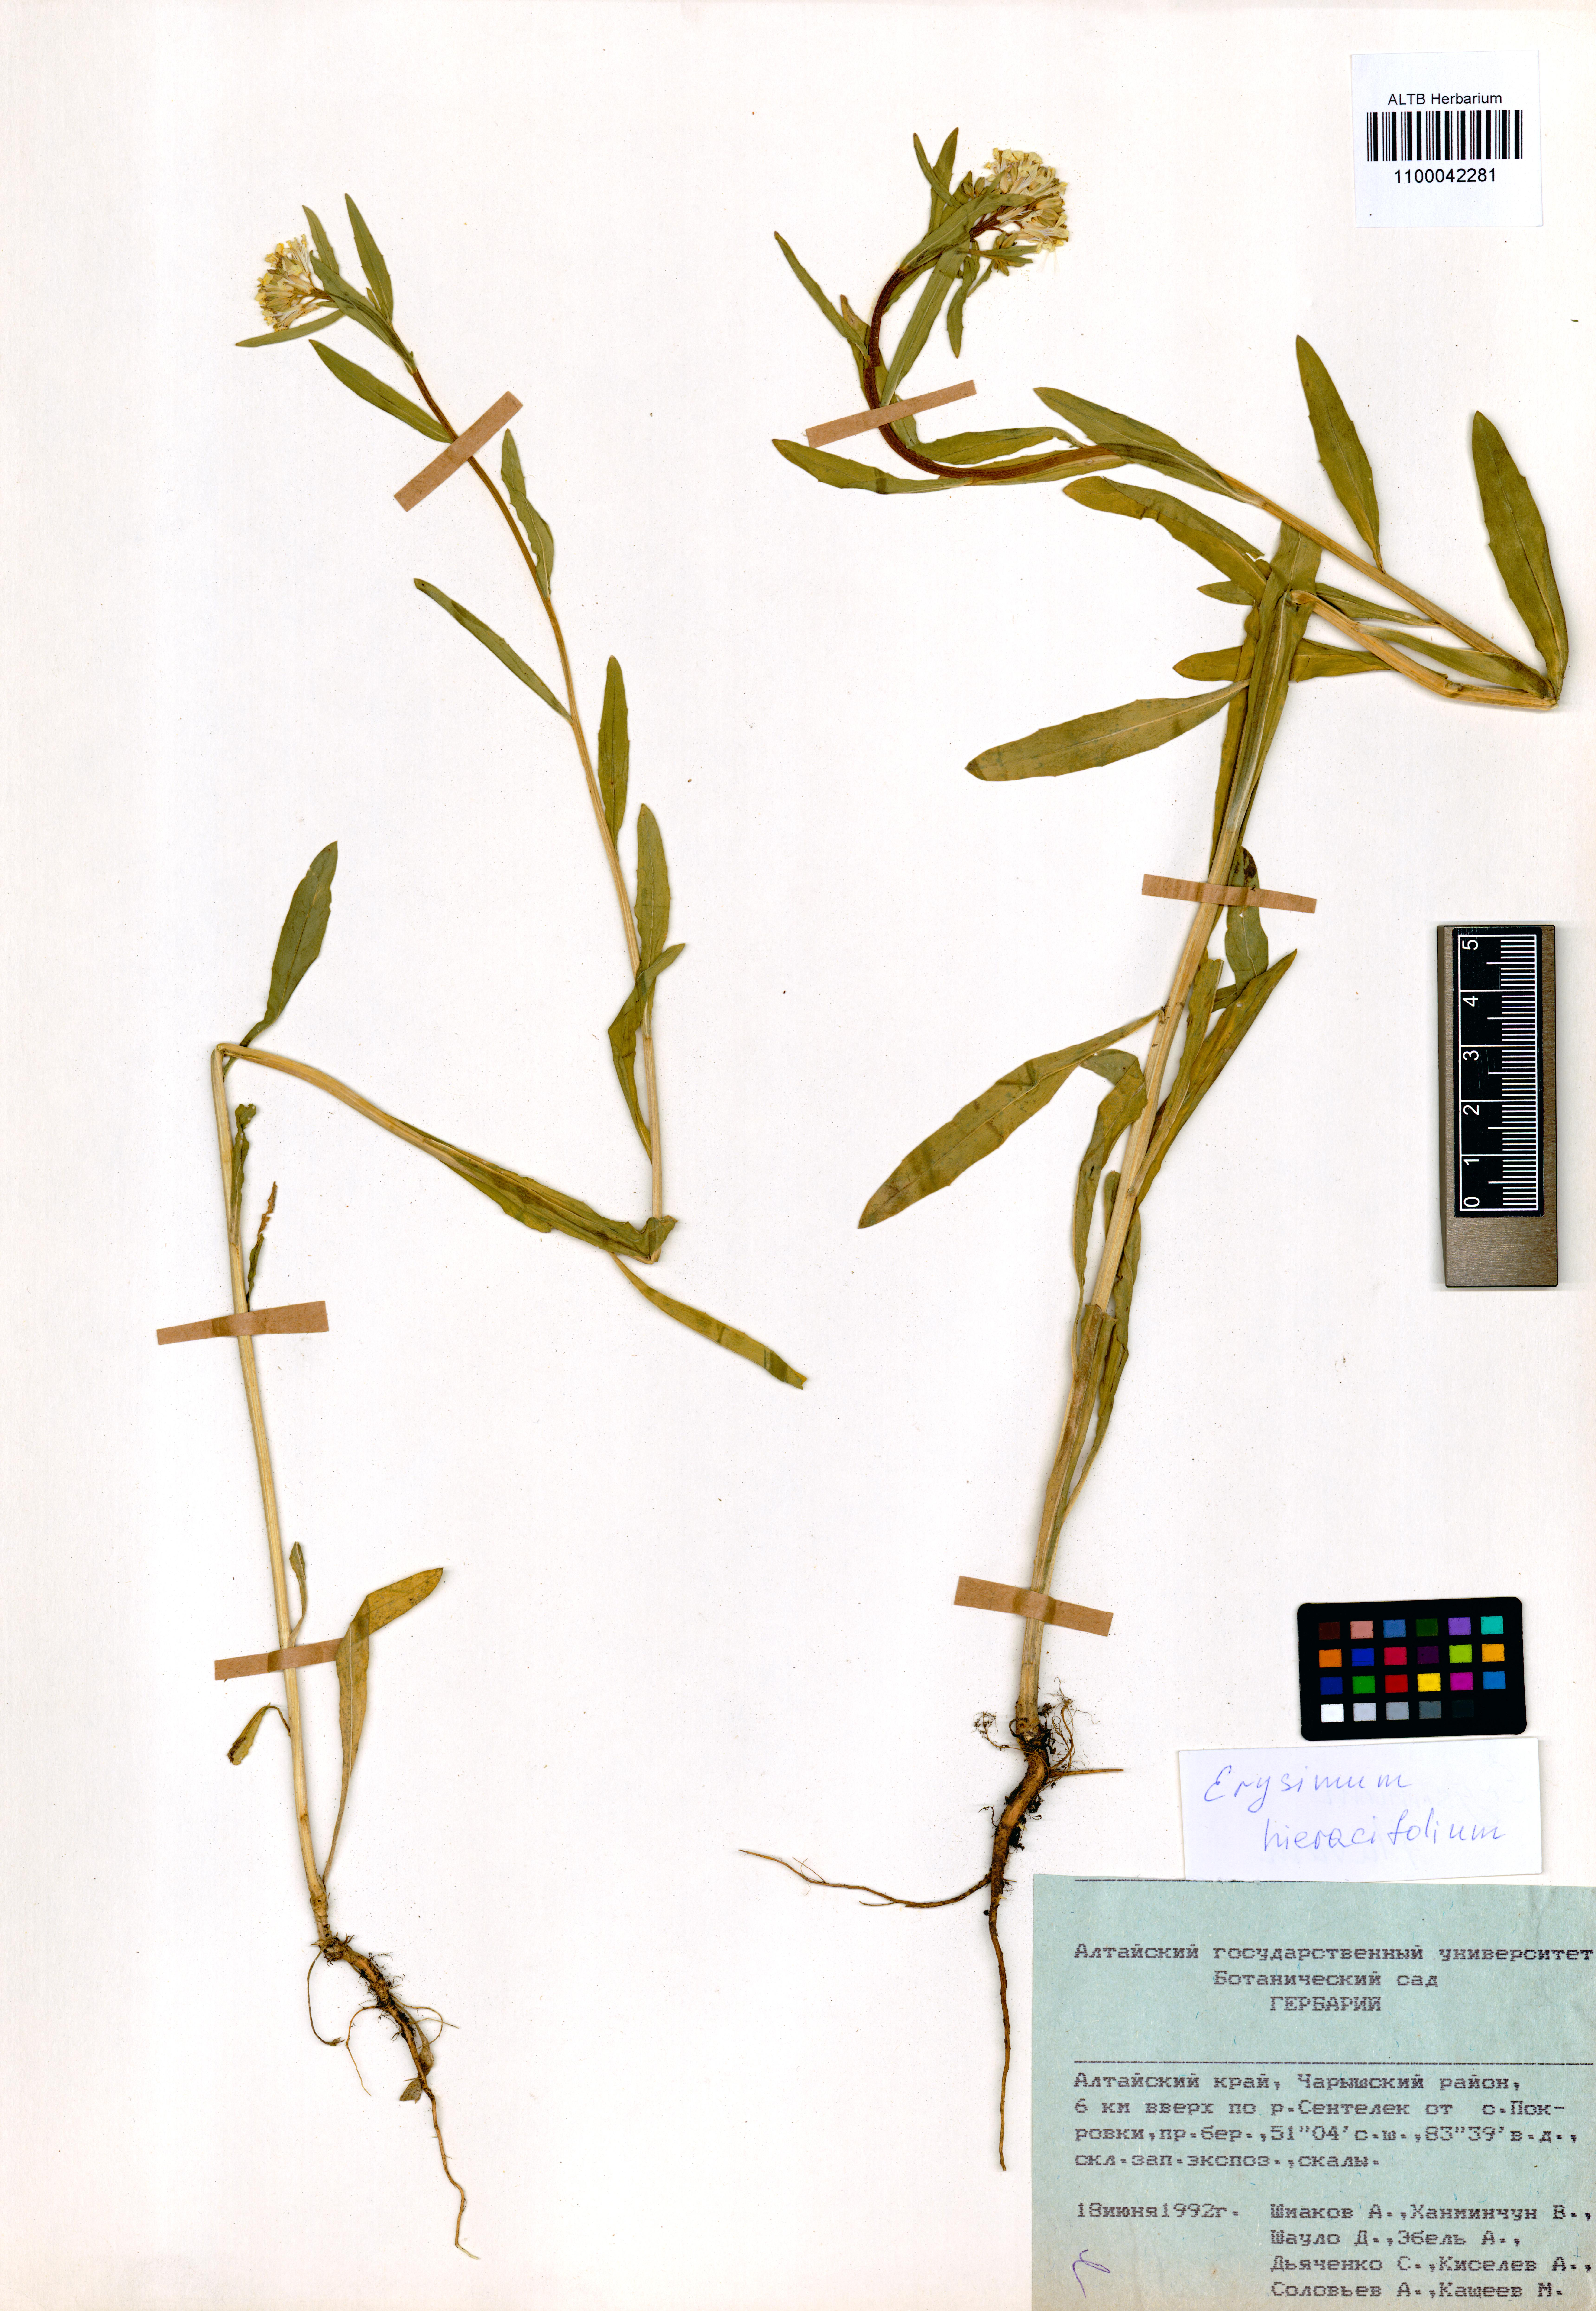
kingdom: Plantae
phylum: Tracheophyta
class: Magnoliopsida
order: Brassicales
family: Brassicaceae
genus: Erysimum
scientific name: Erysimum hieraciifolium
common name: European wallflower
